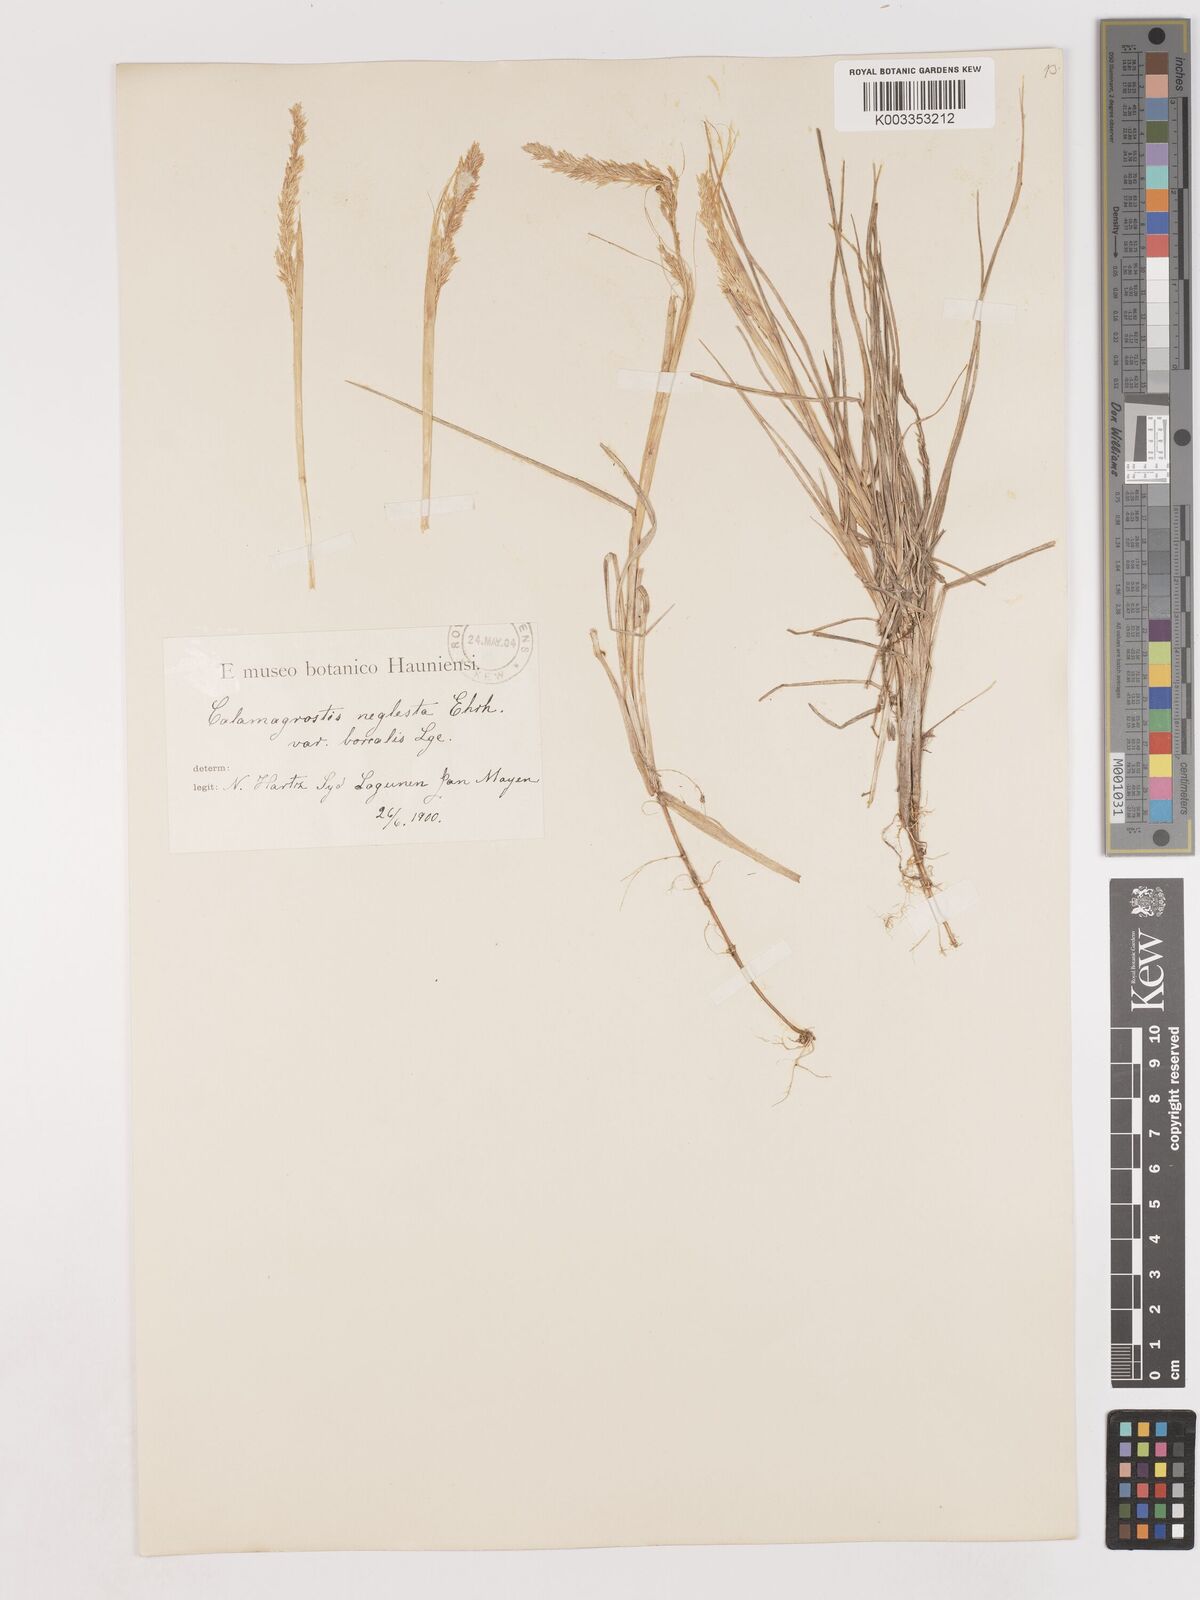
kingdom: Plantae
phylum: Tracheophyta
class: Liliopsida
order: Poales
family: Poaceae
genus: Cinnagrostis
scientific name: Cinnagrostis recta
